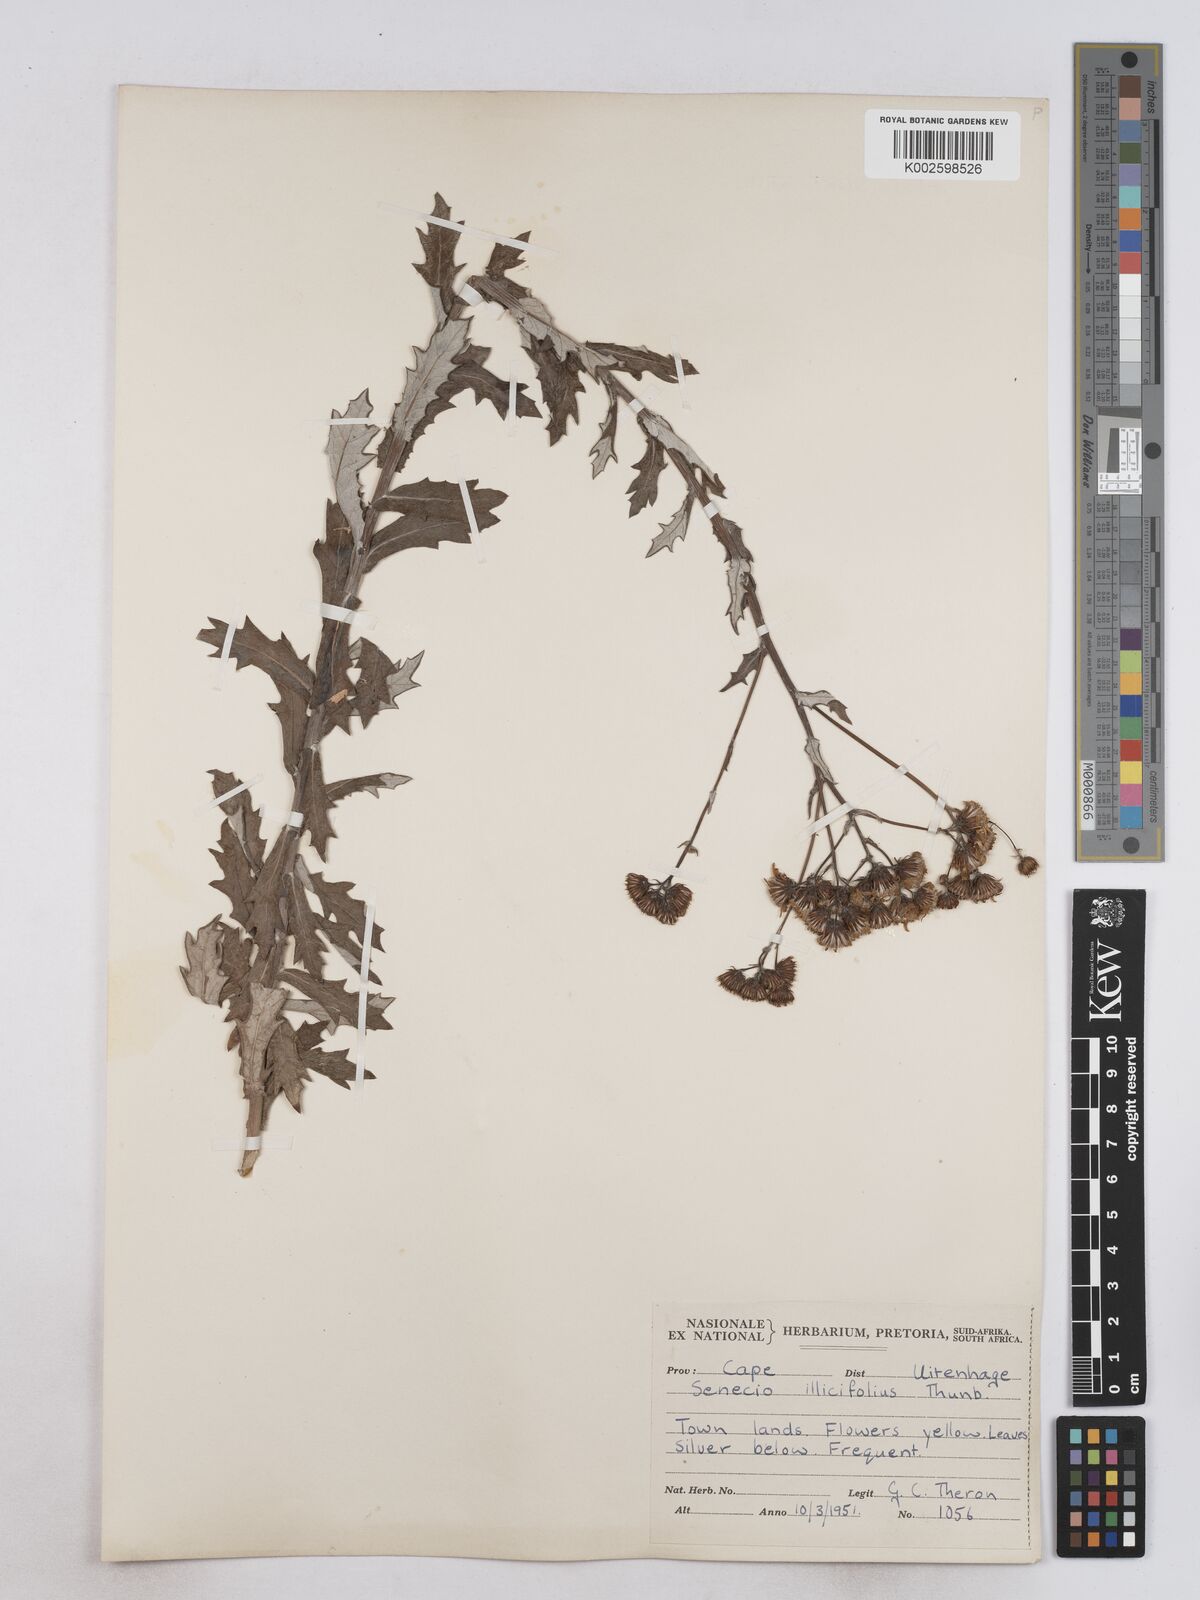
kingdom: Plantae
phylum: Tracheophyta
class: Magnoliopsida
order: Asterales
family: Asteraceae
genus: Senecio
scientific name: Senecio ilicifolius
